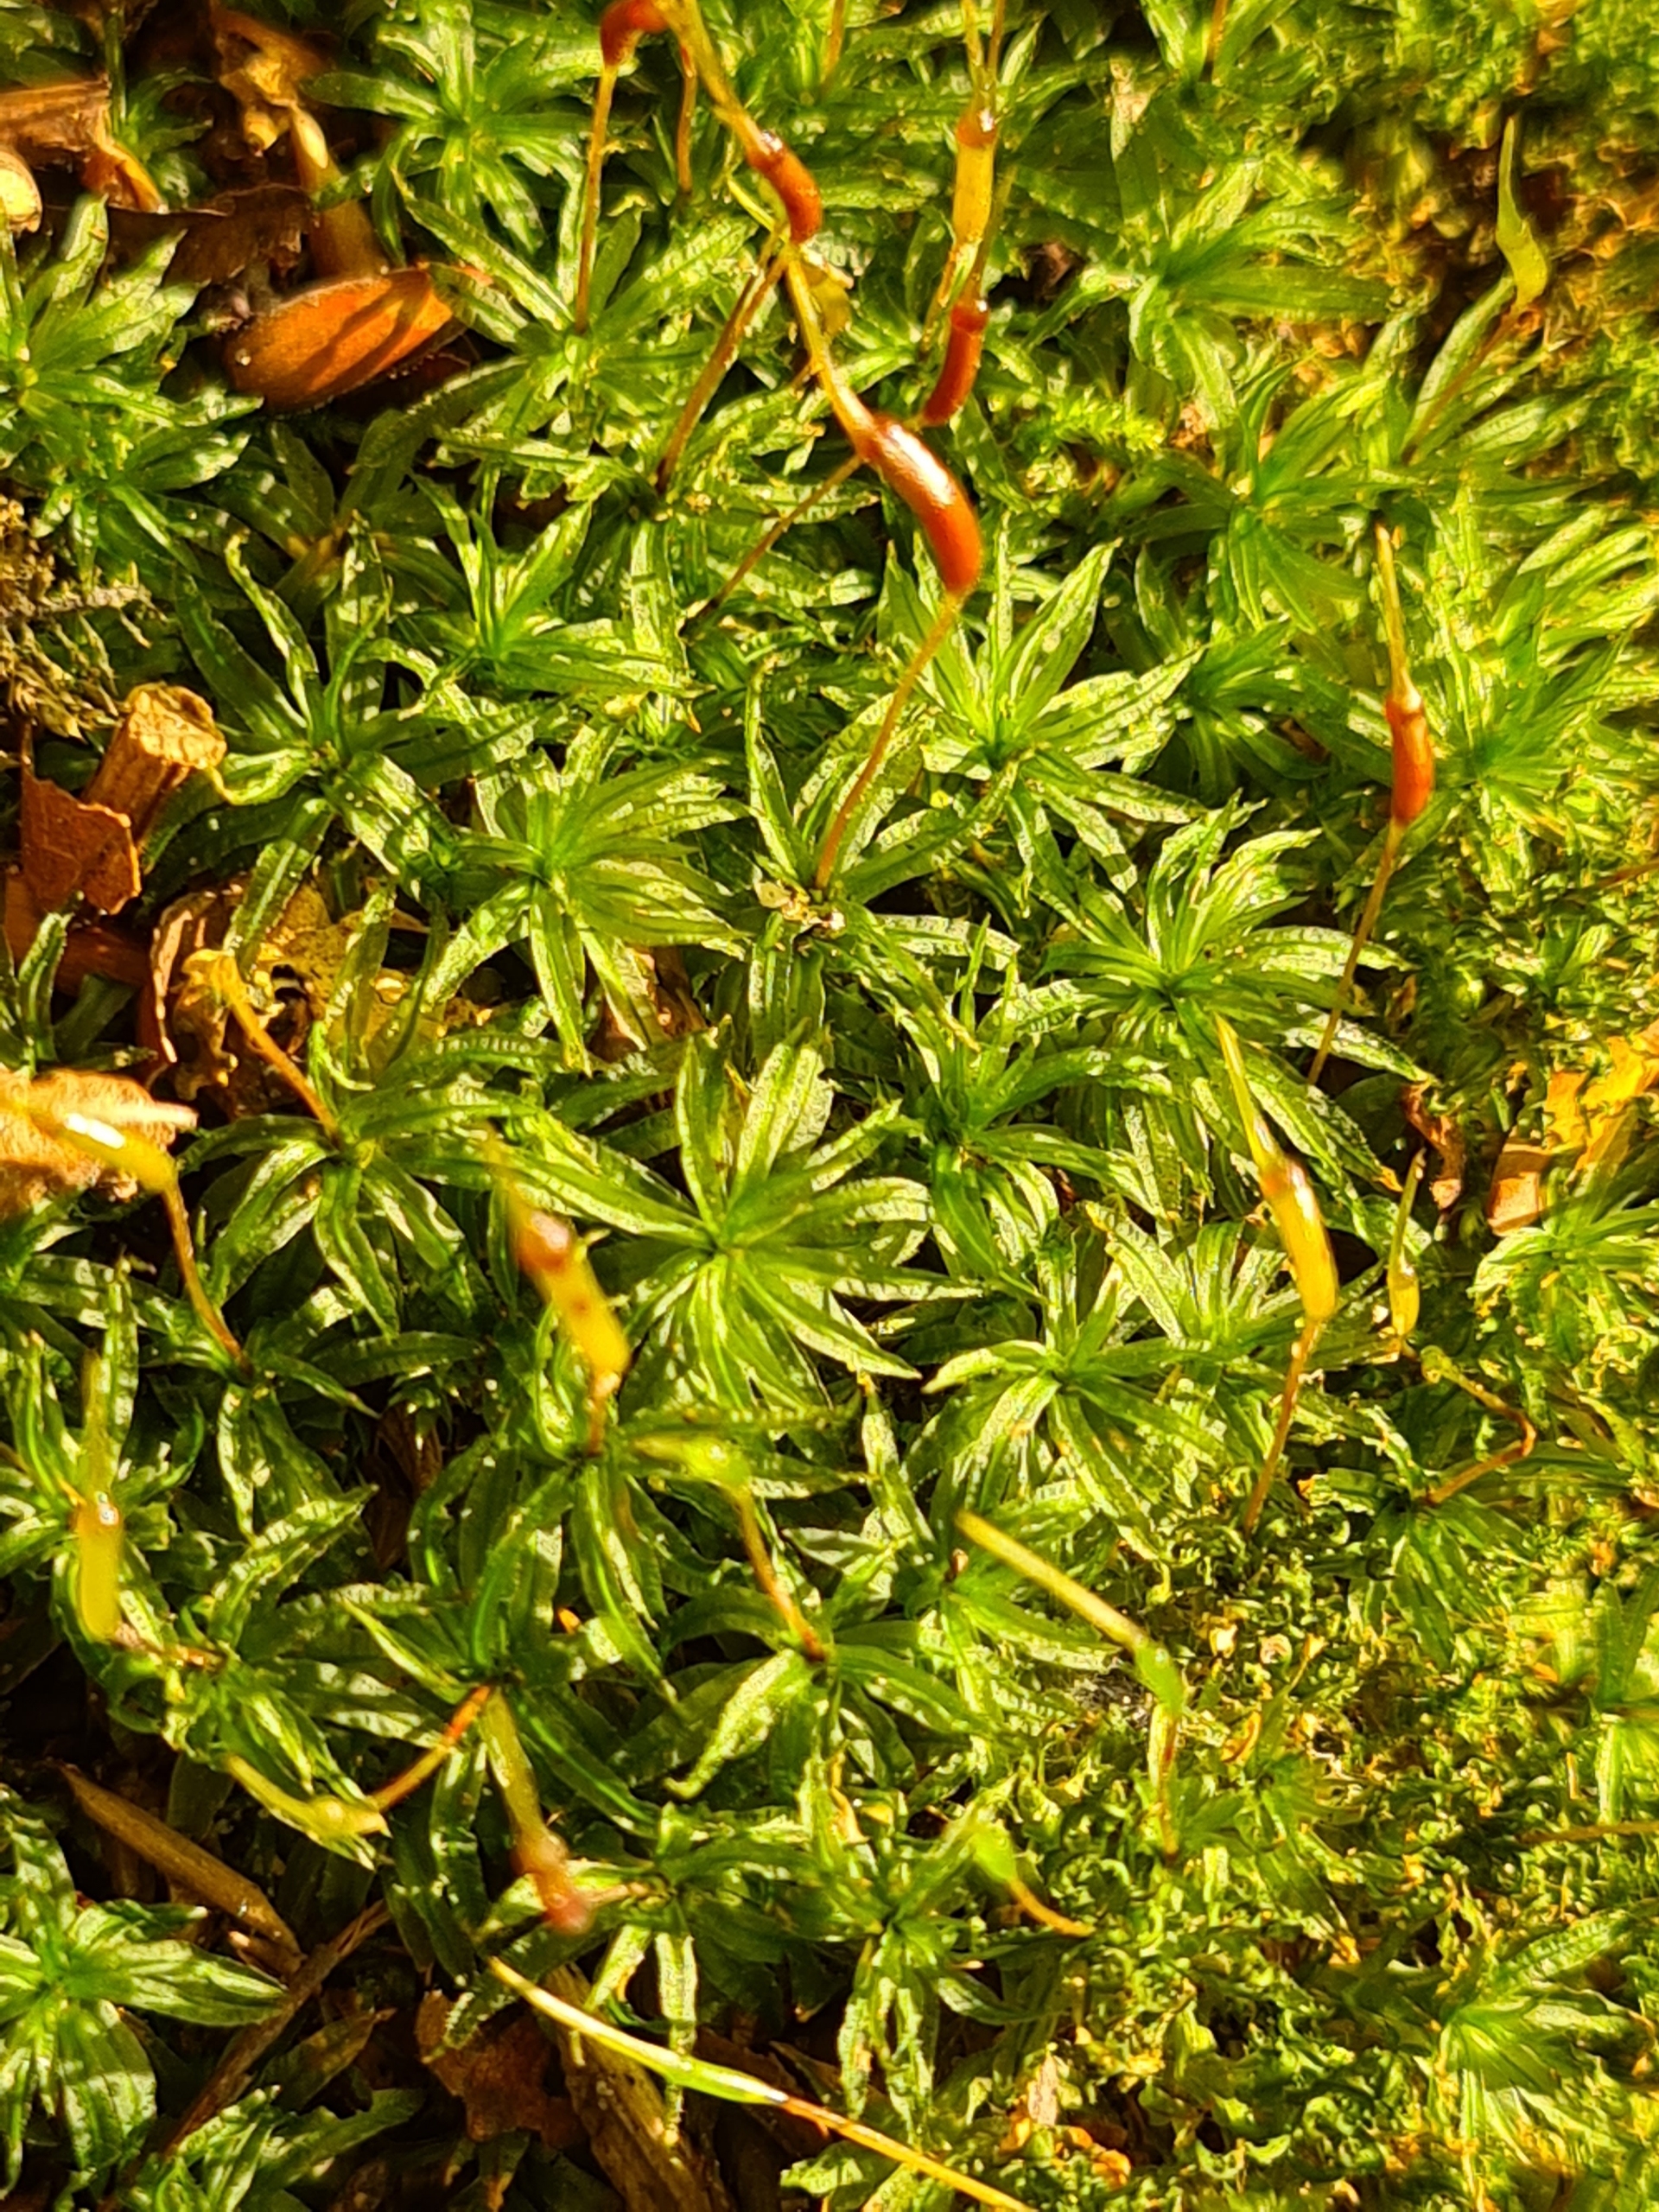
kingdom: Plantae
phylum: Bryophyta
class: Polytrichopsida
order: Polytrichales
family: Polytrichaceae
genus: Atrichum
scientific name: Atrichum undulatum
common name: Bølget katrinemos
